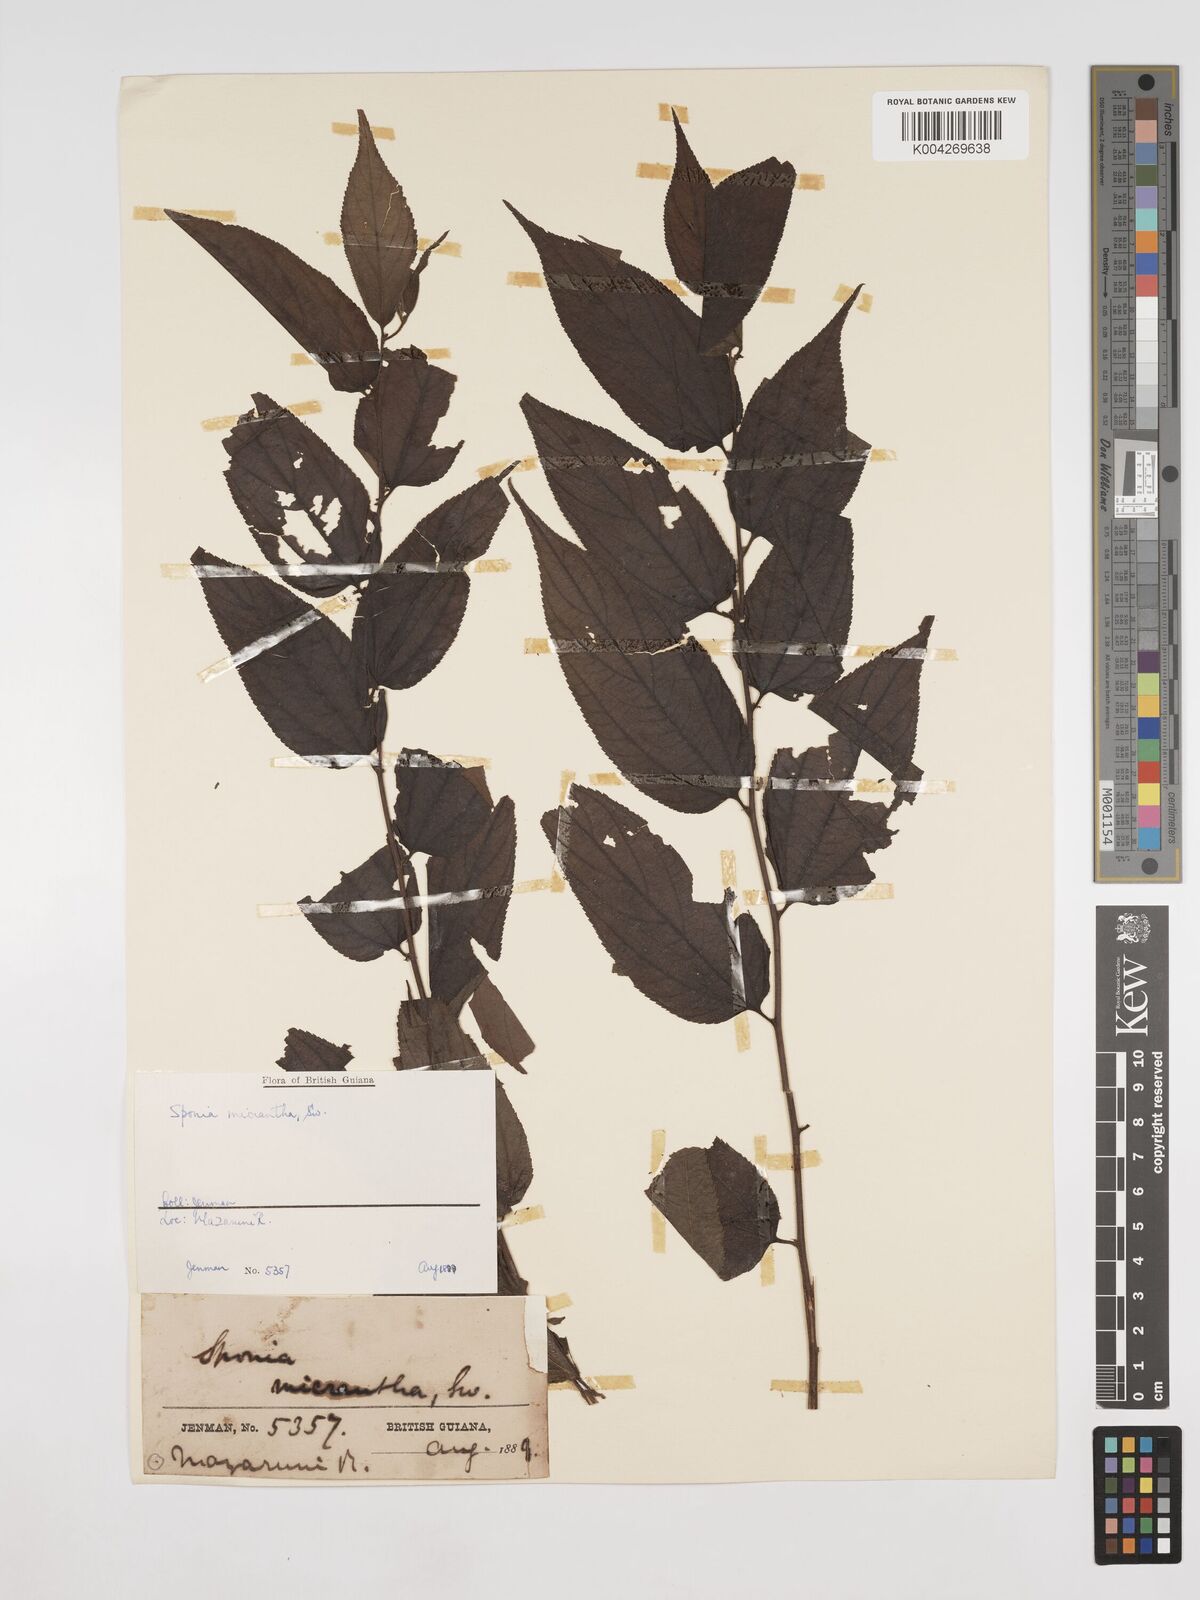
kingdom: Plantae
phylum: Tracheophyta
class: Magnoliopsida
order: Rosales
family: Cannabaceae
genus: Trema
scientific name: Trema micranthum
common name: Jamaican nettletree
